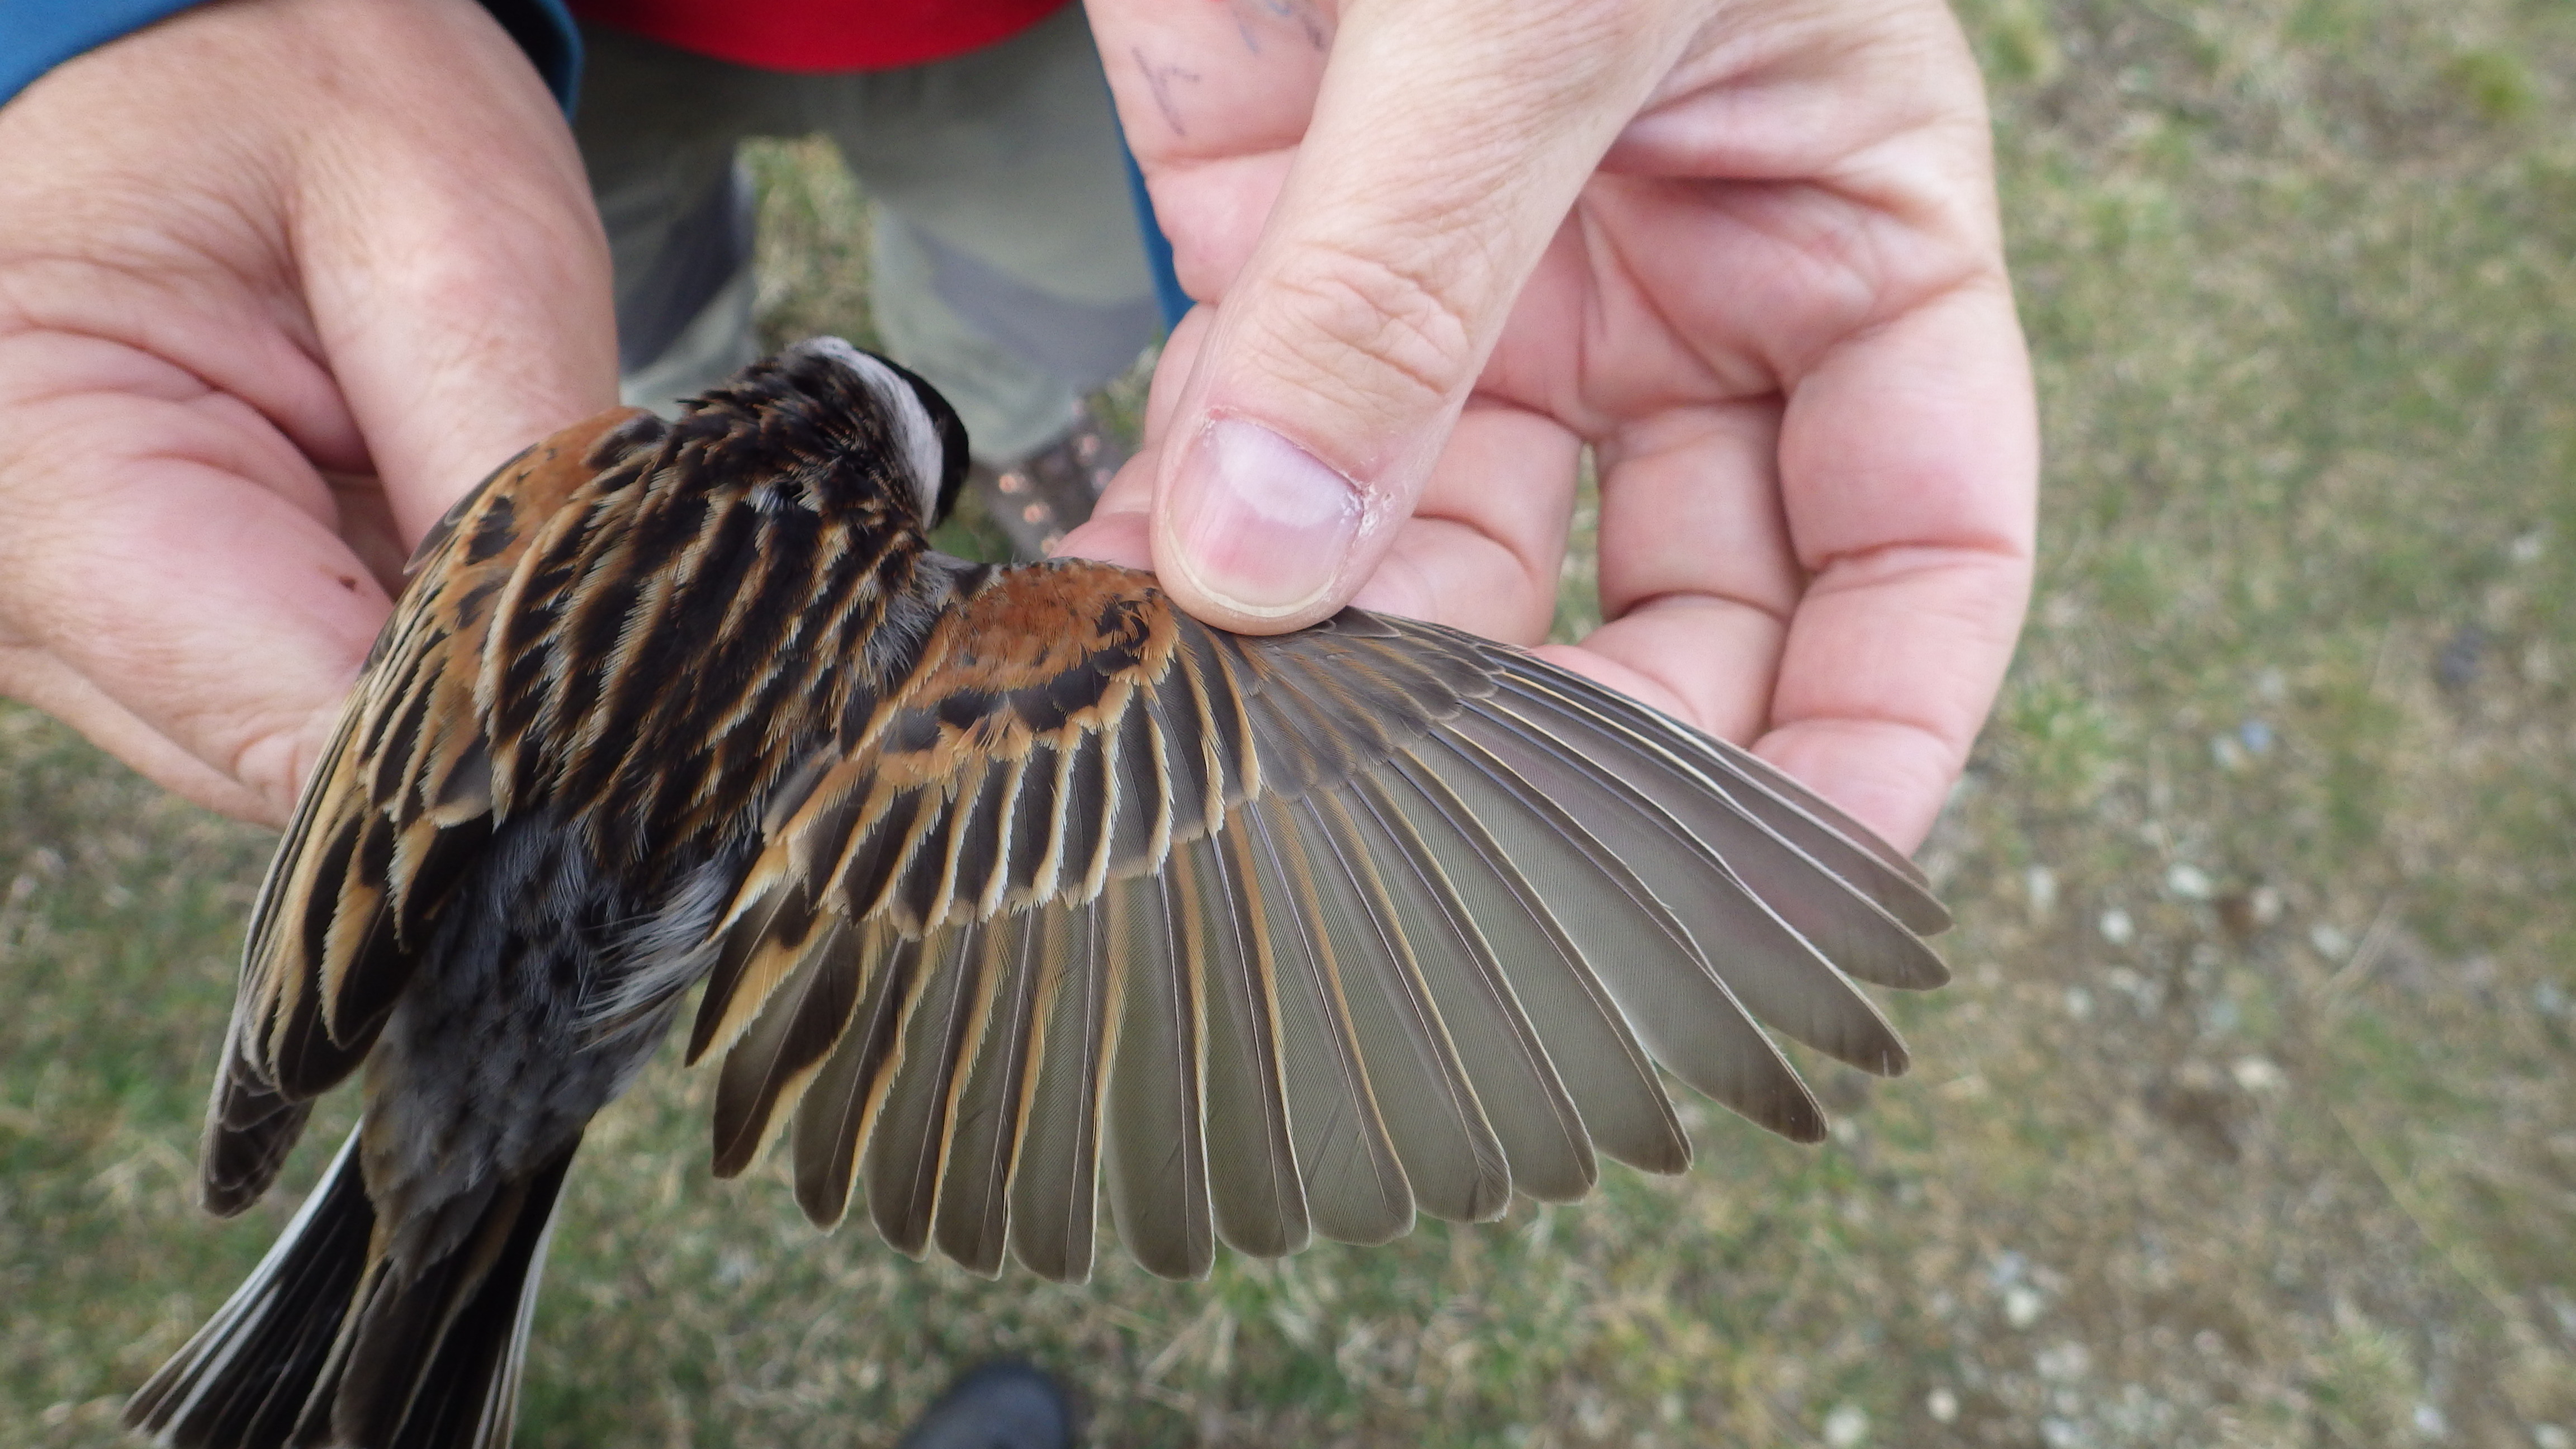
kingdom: Animalia
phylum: Chordata
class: Aves
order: Passeriformes
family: Emberizidae
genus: Emberiza
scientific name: Emberiza schoeniclus
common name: Reed bunting
